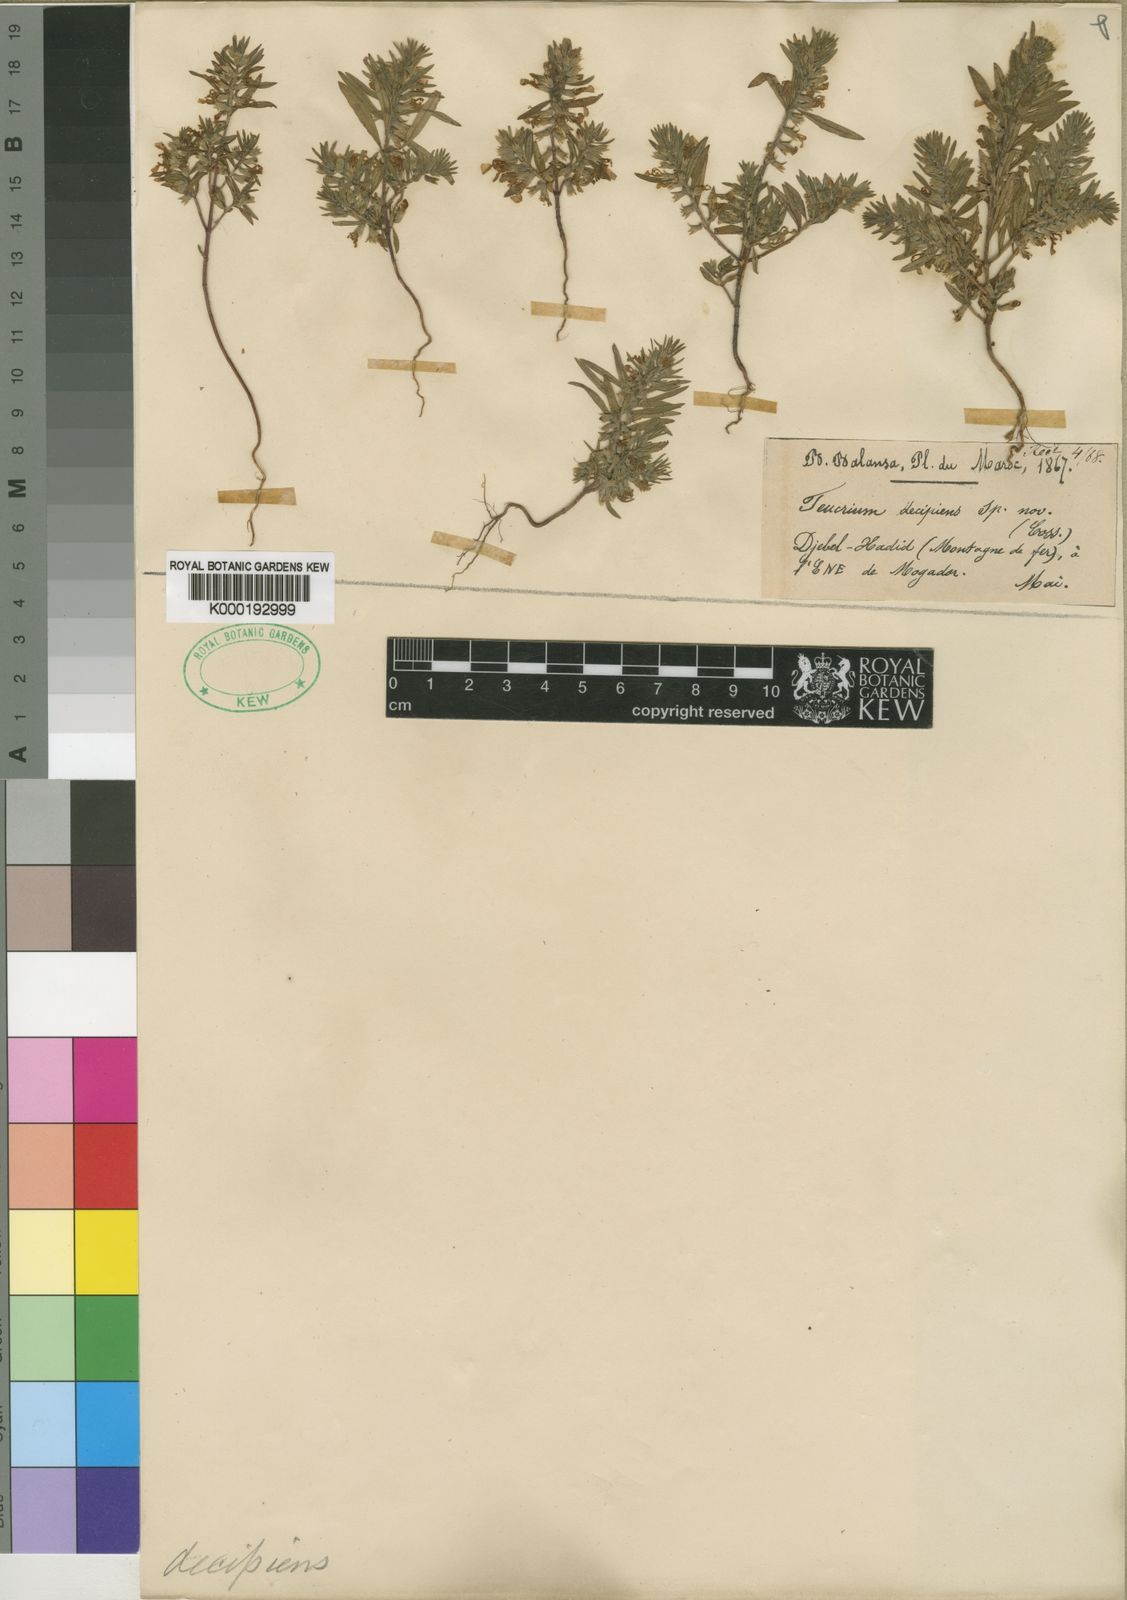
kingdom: Plantae
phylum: Tracheophyta
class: Magnoliopsida
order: Lamiales
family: Lamiaceae
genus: Teucrium
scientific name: Teucrium decipiens
